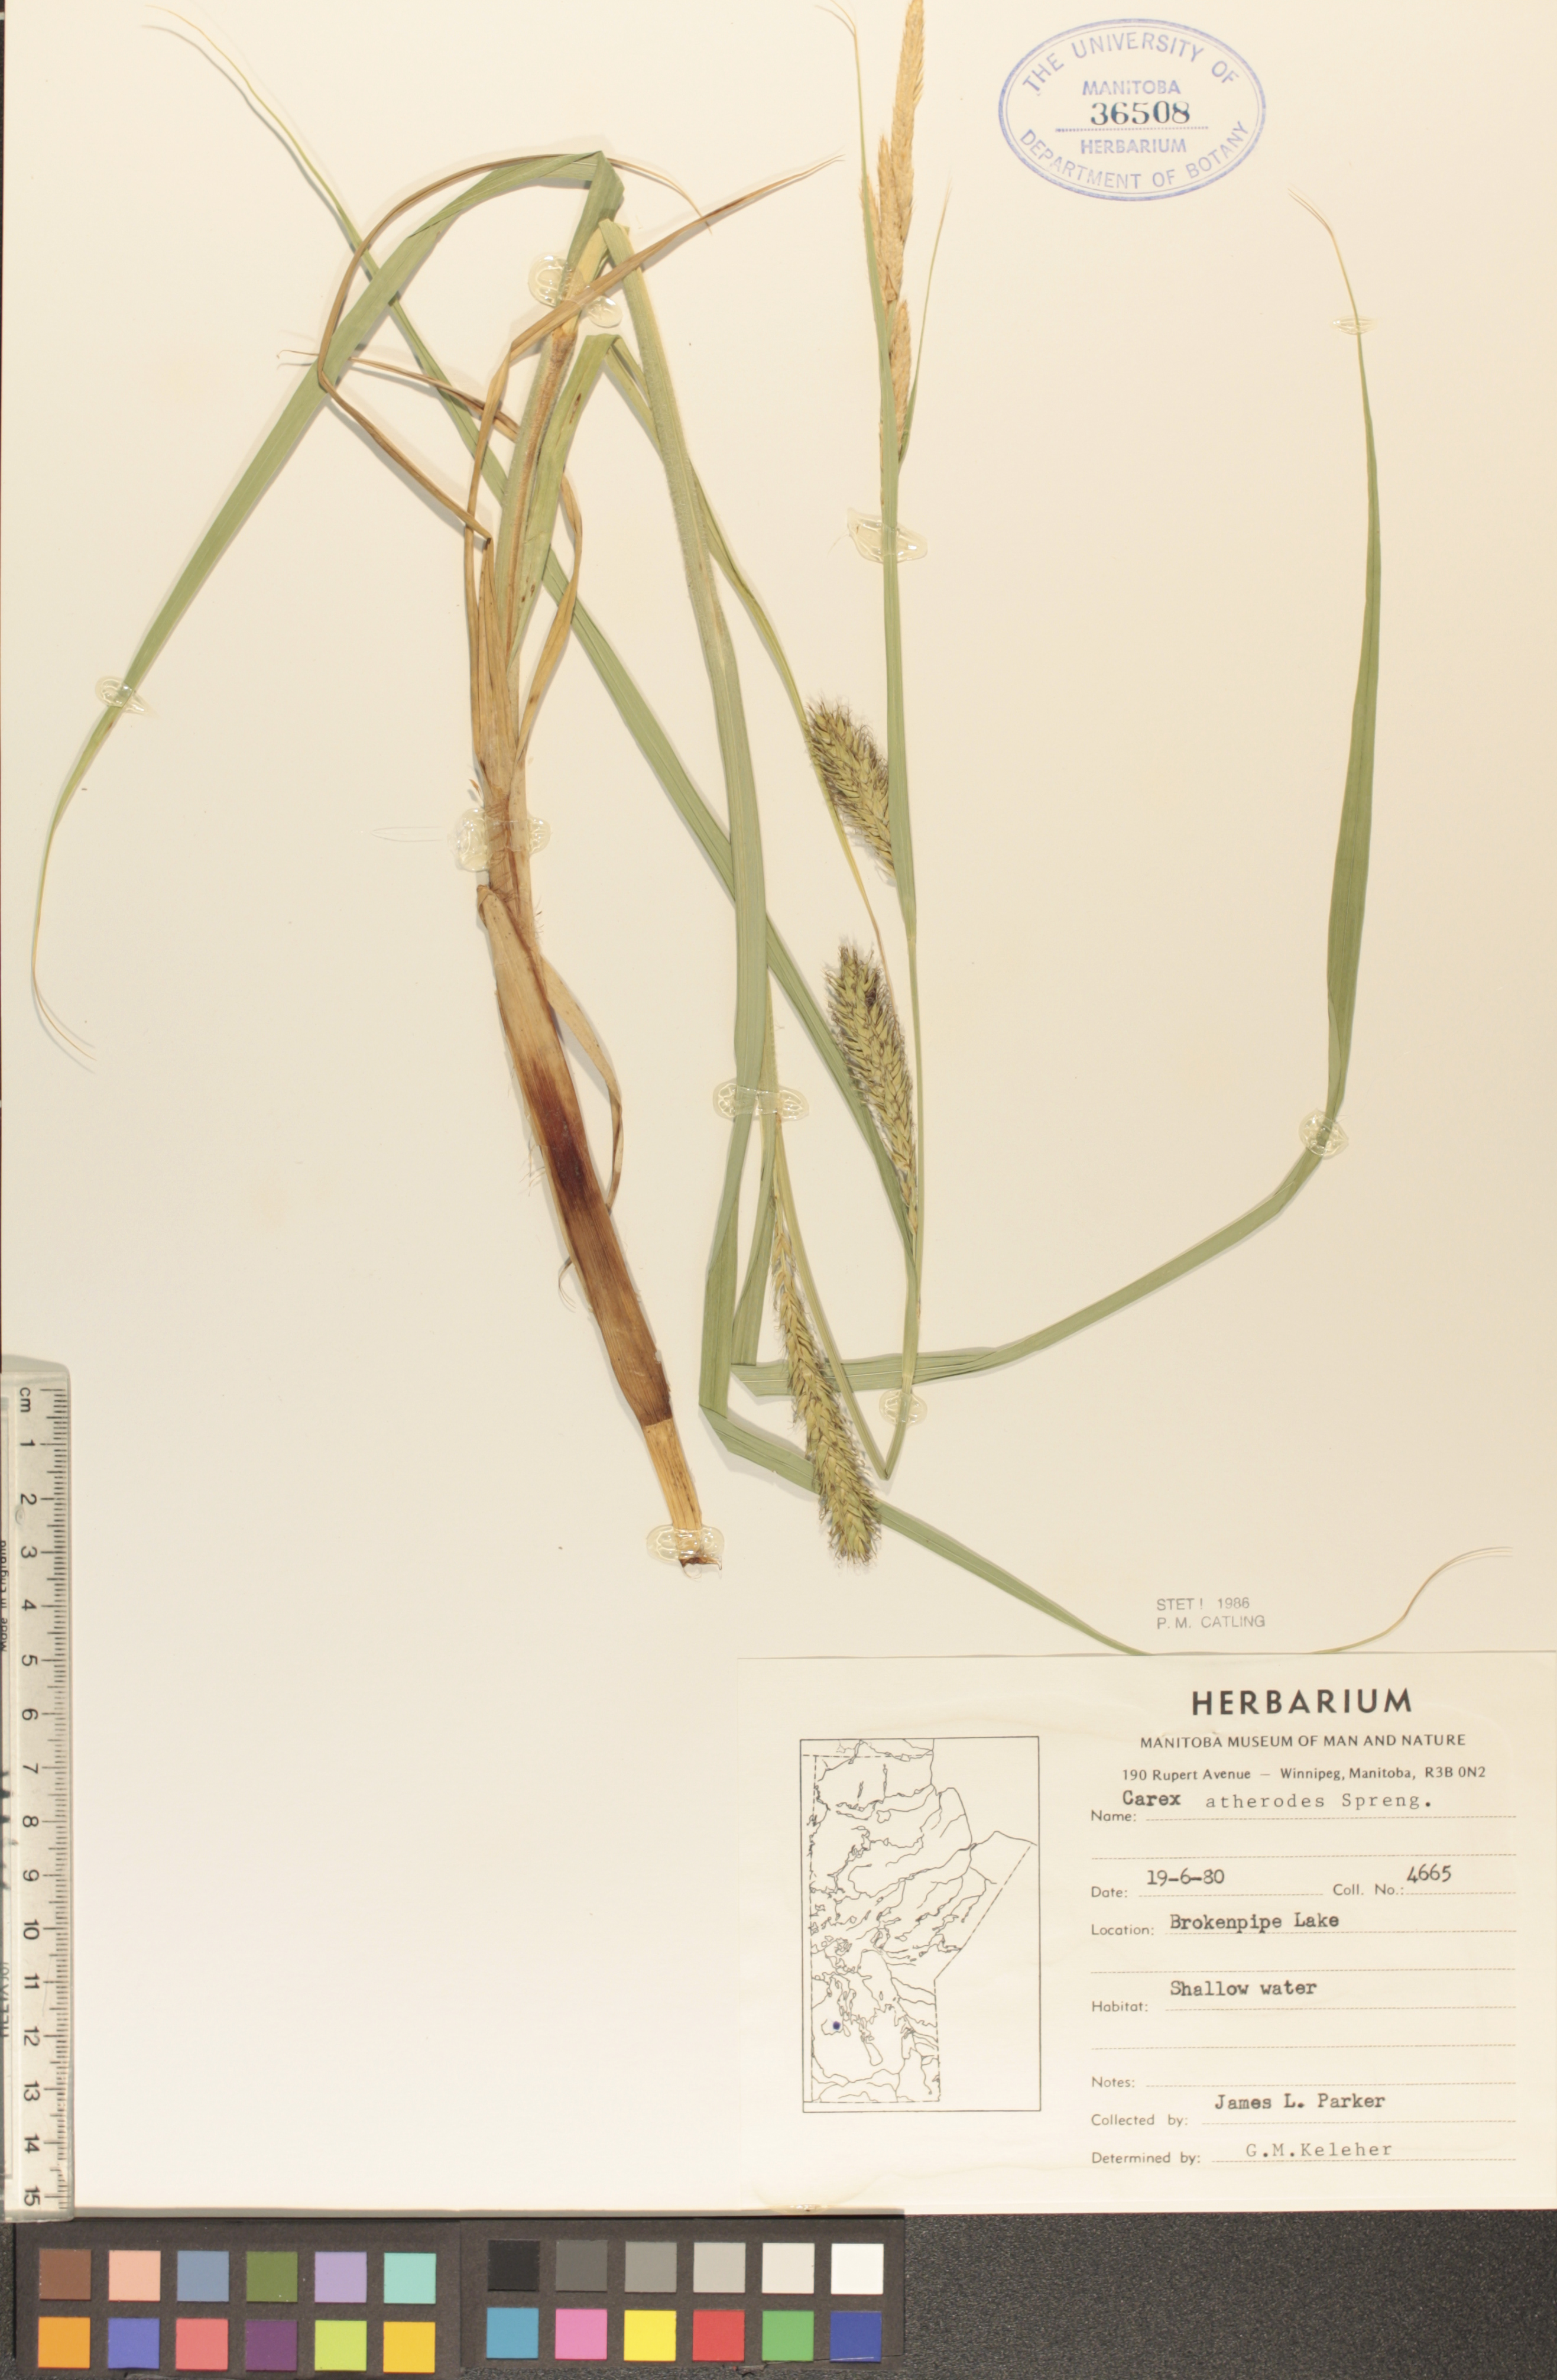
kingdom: Plantae
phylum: Tracheophyta
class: Liliopsida
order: Poales
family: Cyperaceae
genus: Carex
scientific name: Carex atherodes
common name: Wheat sedge
